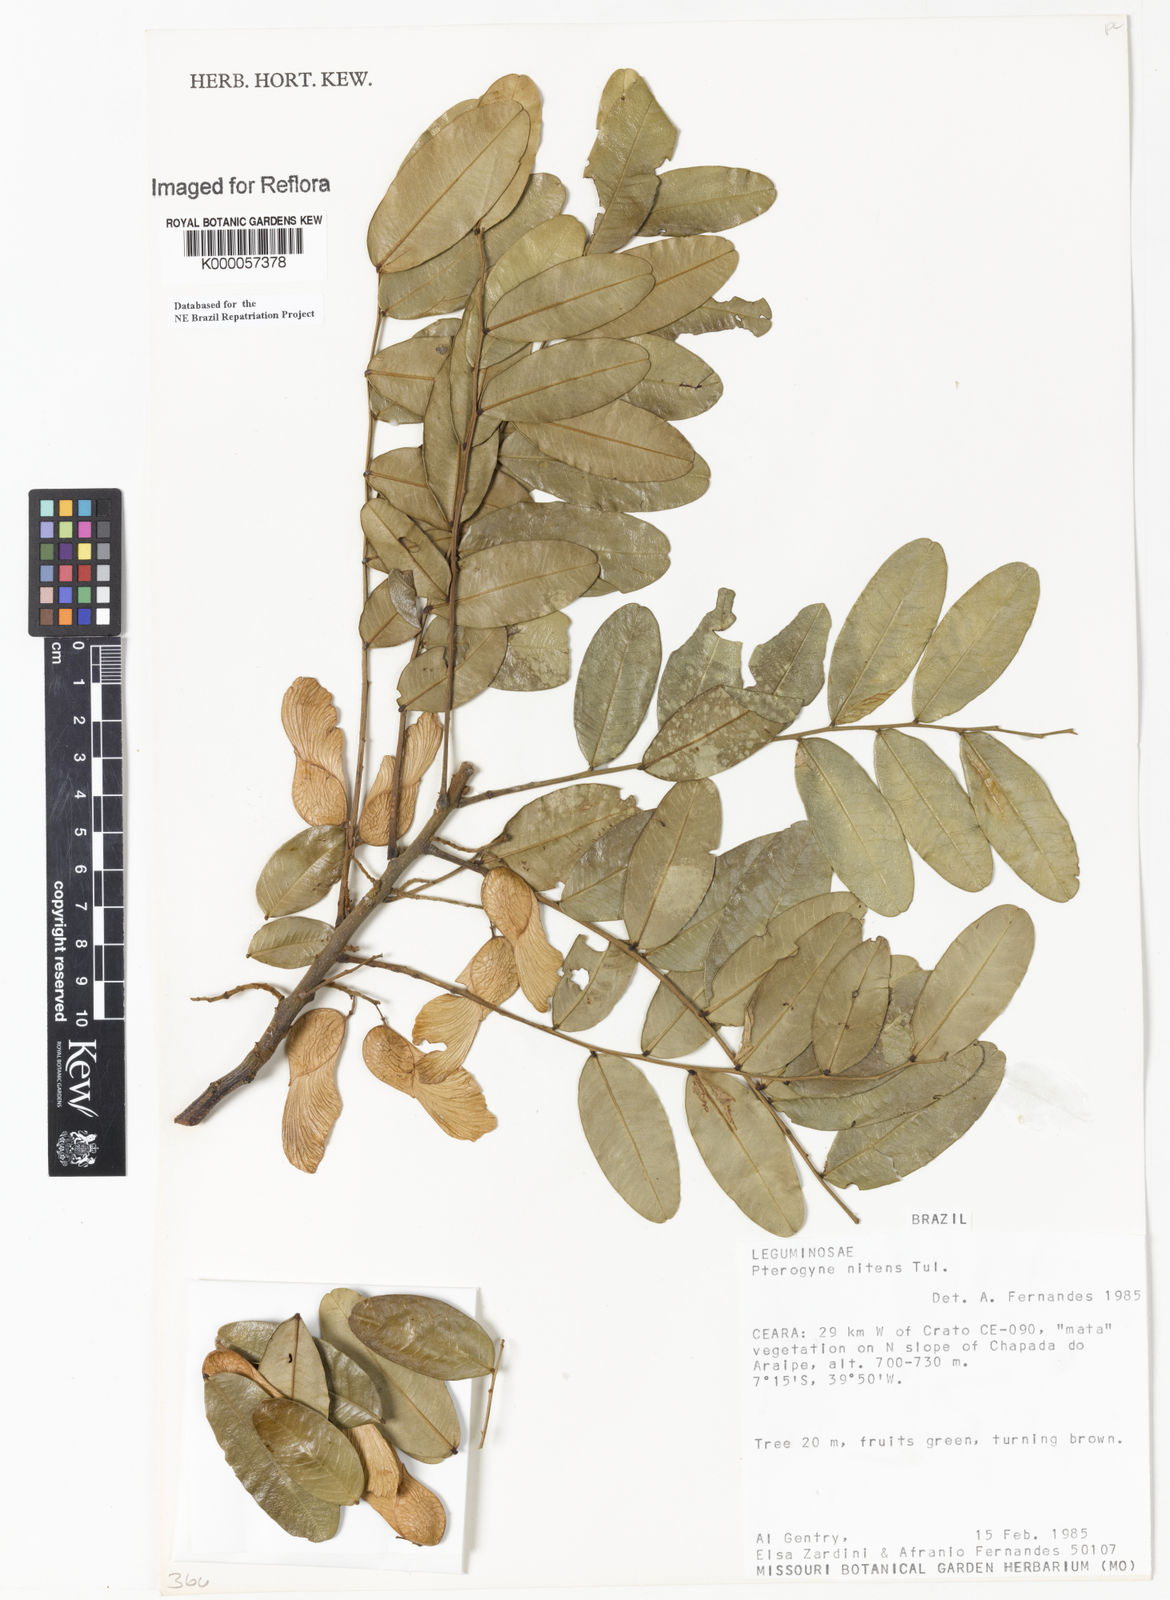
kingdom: Plantae
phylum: Tracheophyta
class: Magnoliopsida
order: Fabales
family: Fabaceae
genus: Pterogyne
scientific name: Pterogyne nitens
